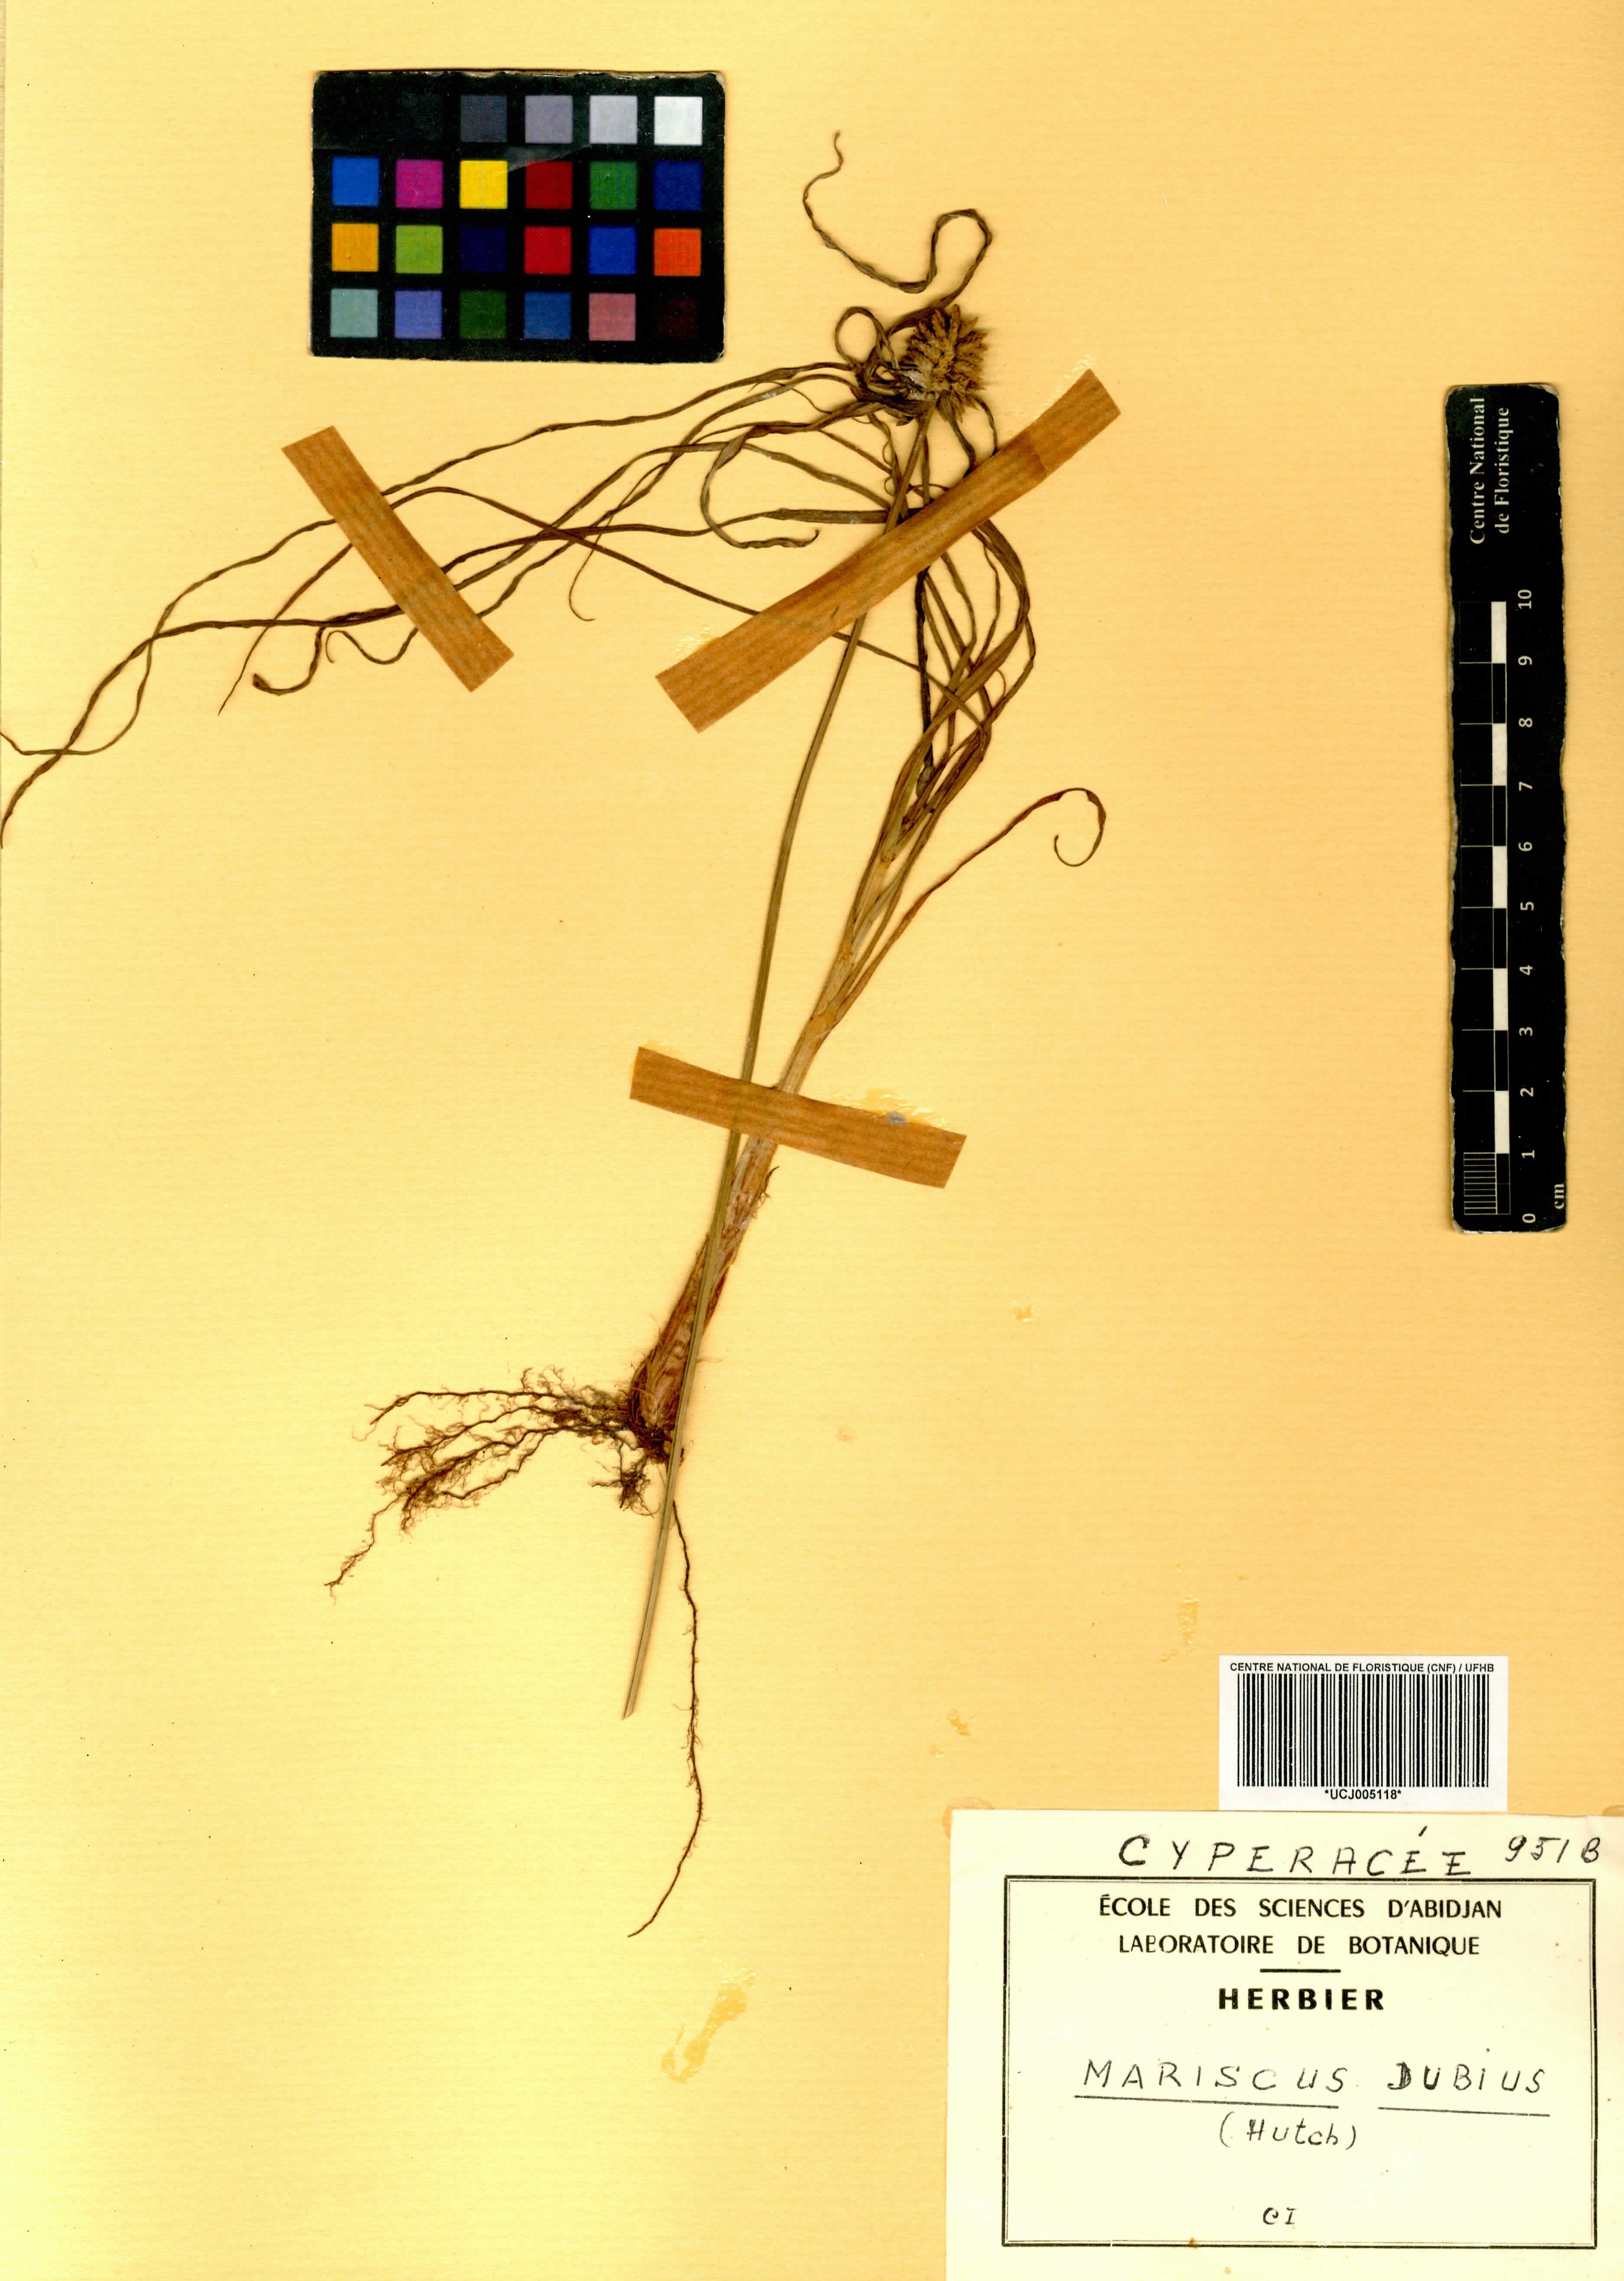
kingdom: Plantae
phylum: Tracheophyta
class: Liliopsida
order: Poales
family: Cyperaceae
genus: Cyperus
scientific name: Cyperus dubius
